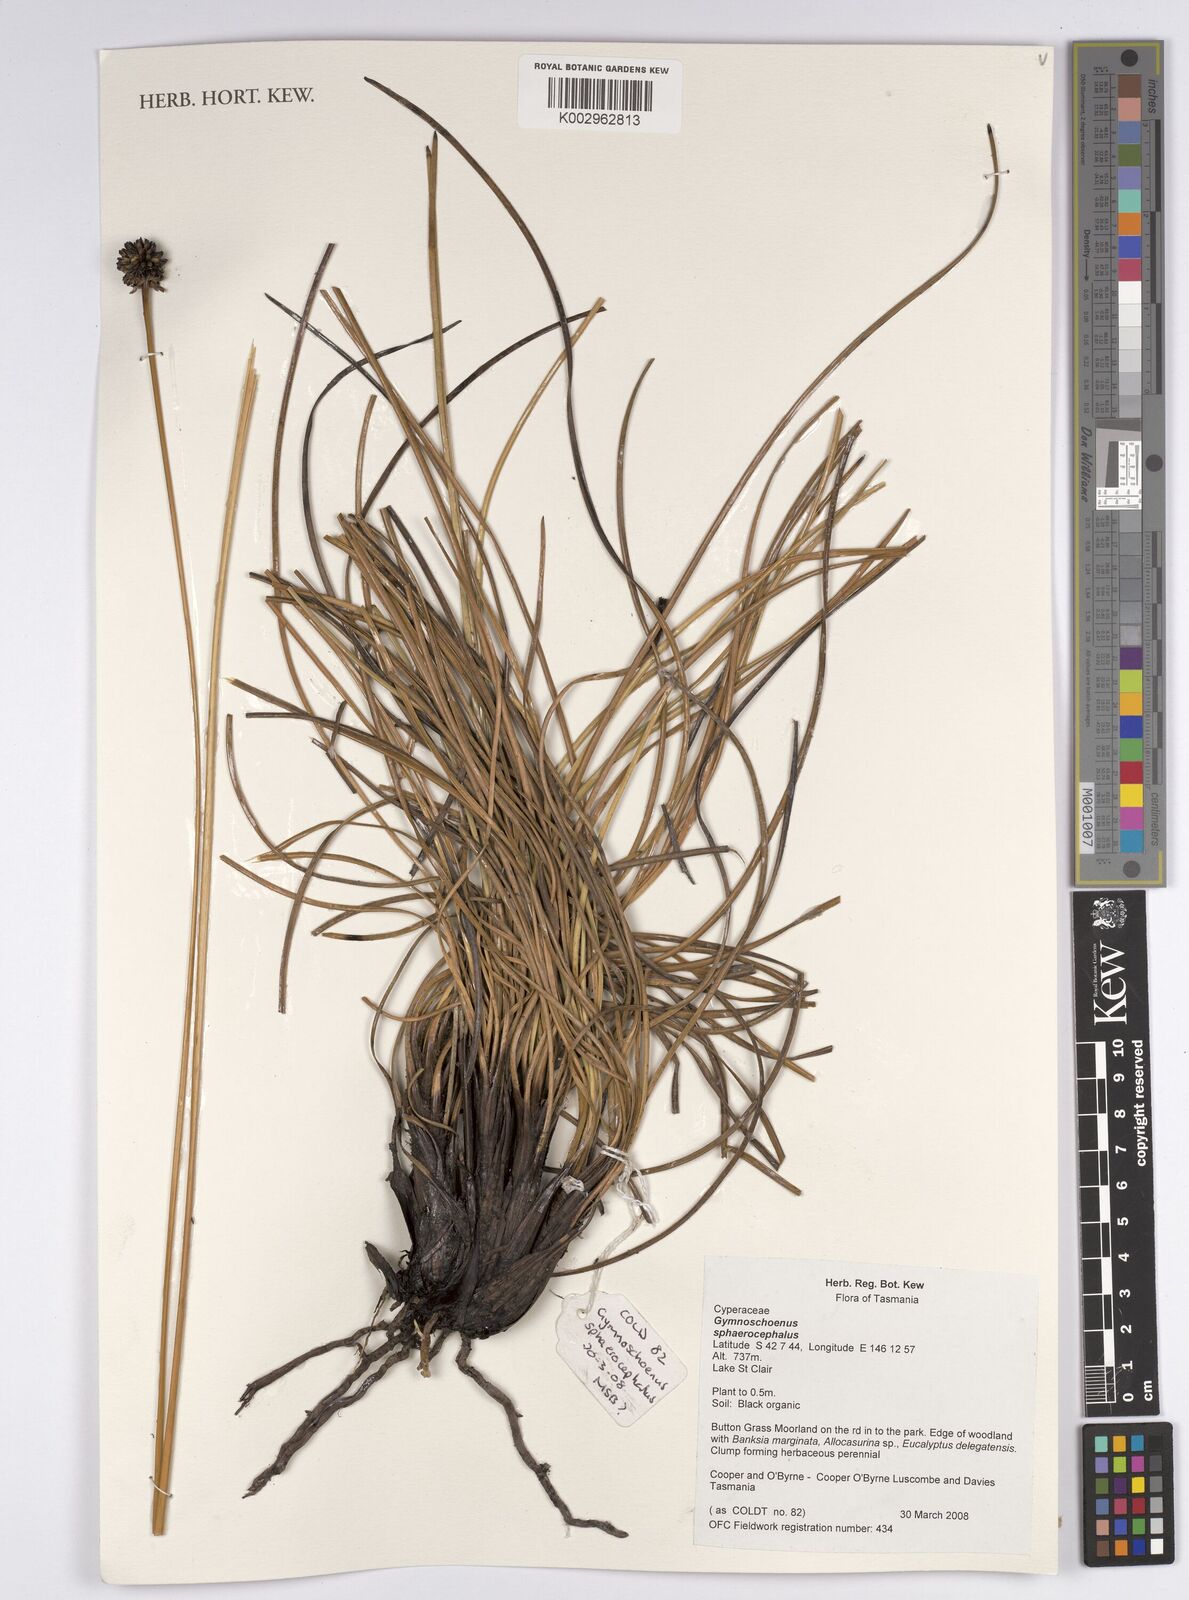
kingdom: Plantae
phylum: Tracheophyta
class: Liliopsida
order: Poales
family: Cyperaceae
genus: Gymnoschoenus
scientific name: Gymnoschoenus sphaerocephalus
